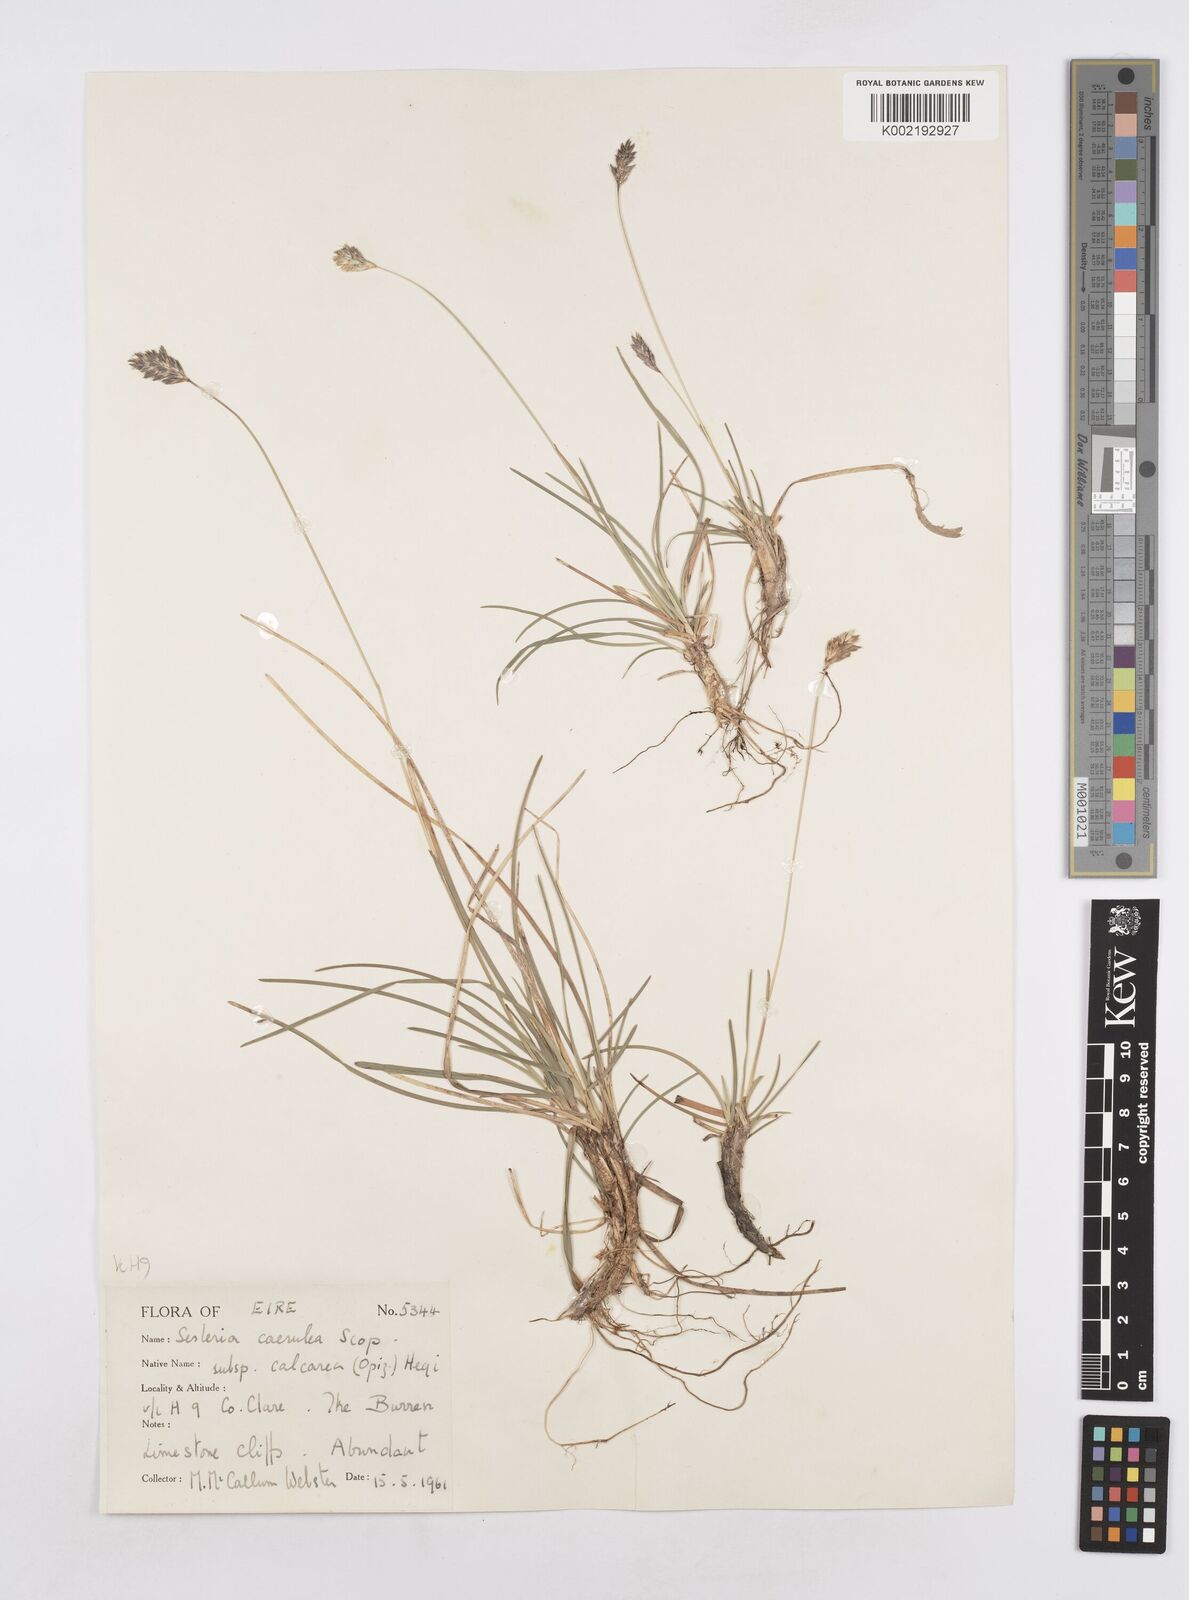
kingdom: Plantae
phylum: Tracheophyta
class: Liliopsida
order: Poales
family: Poaceae
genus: Sesleria
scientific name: Sesleria caerulea
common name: Blue moor-grass
